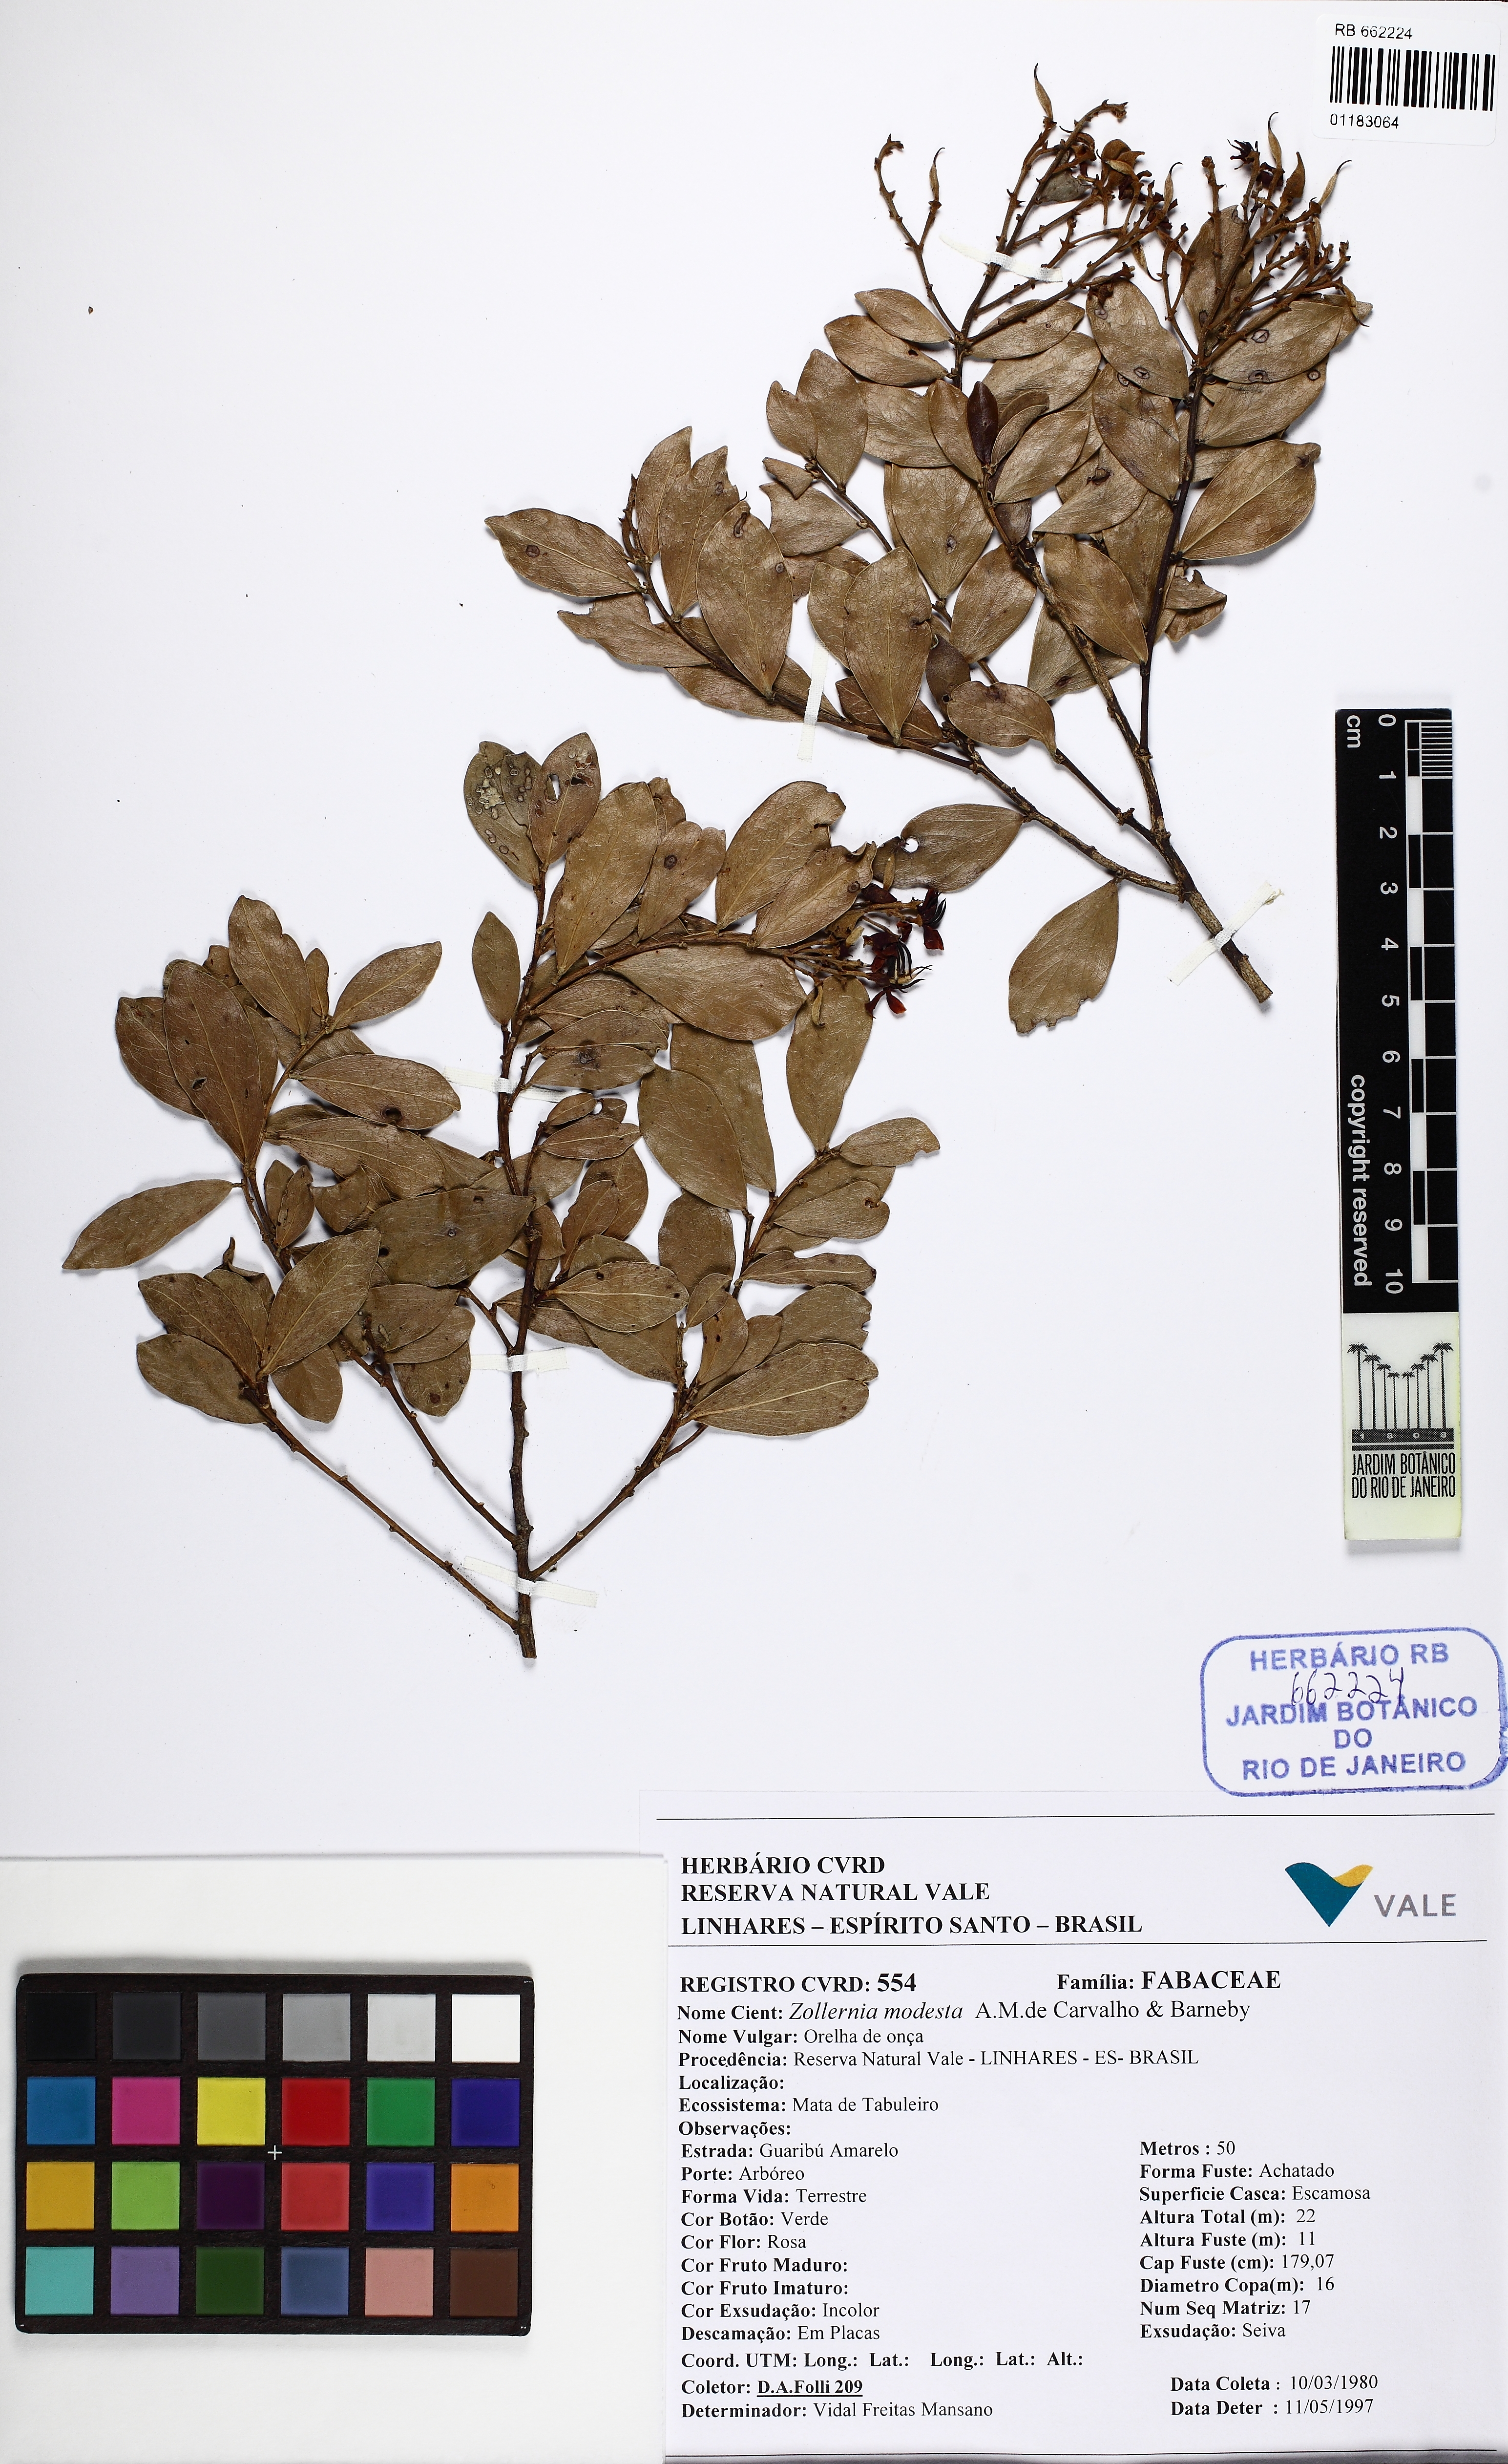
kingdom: Plantae
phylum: Tracheophyta
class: Magnoliopsida
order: Fabales
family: Fabaceae
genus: Zollernia
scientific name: Zollernia modesta
